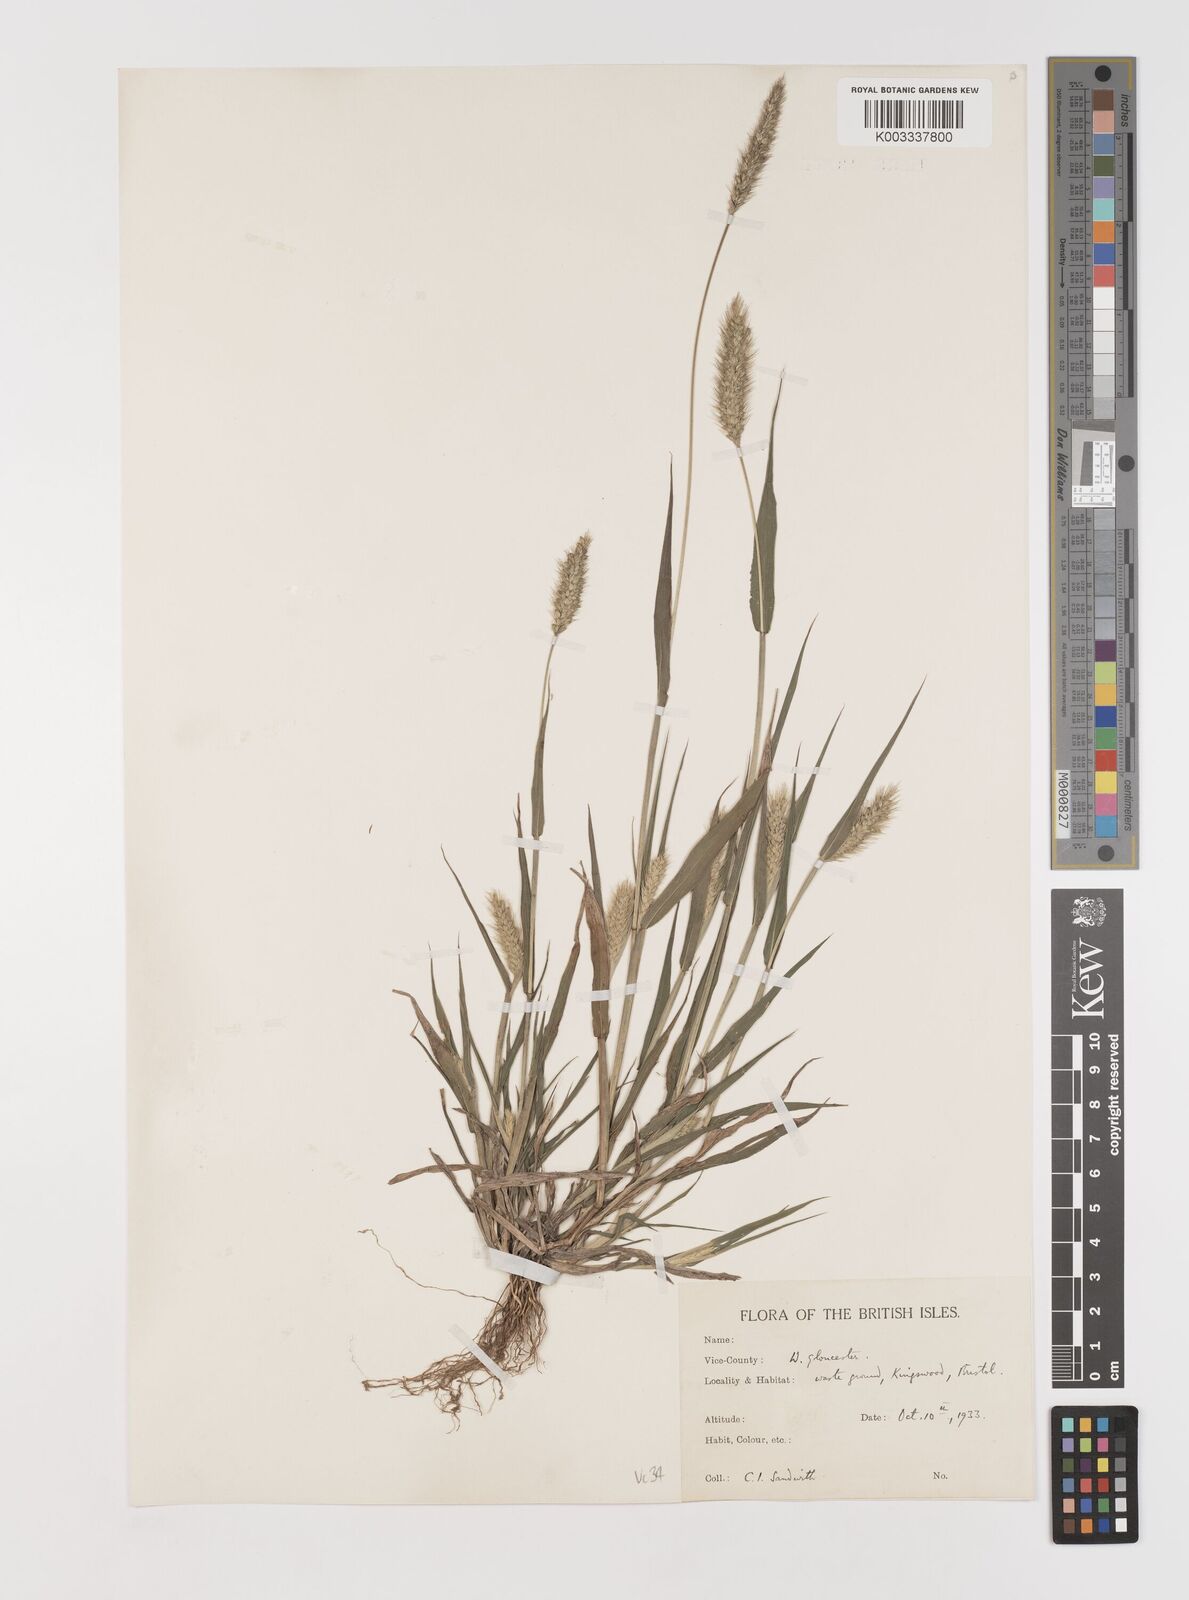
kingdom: Plantae
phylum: Tracheophyta
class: Liliopsida
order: Poales
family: Poaceae
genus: Setaria
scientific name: Setaria viridis
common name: Green bristlegrass
